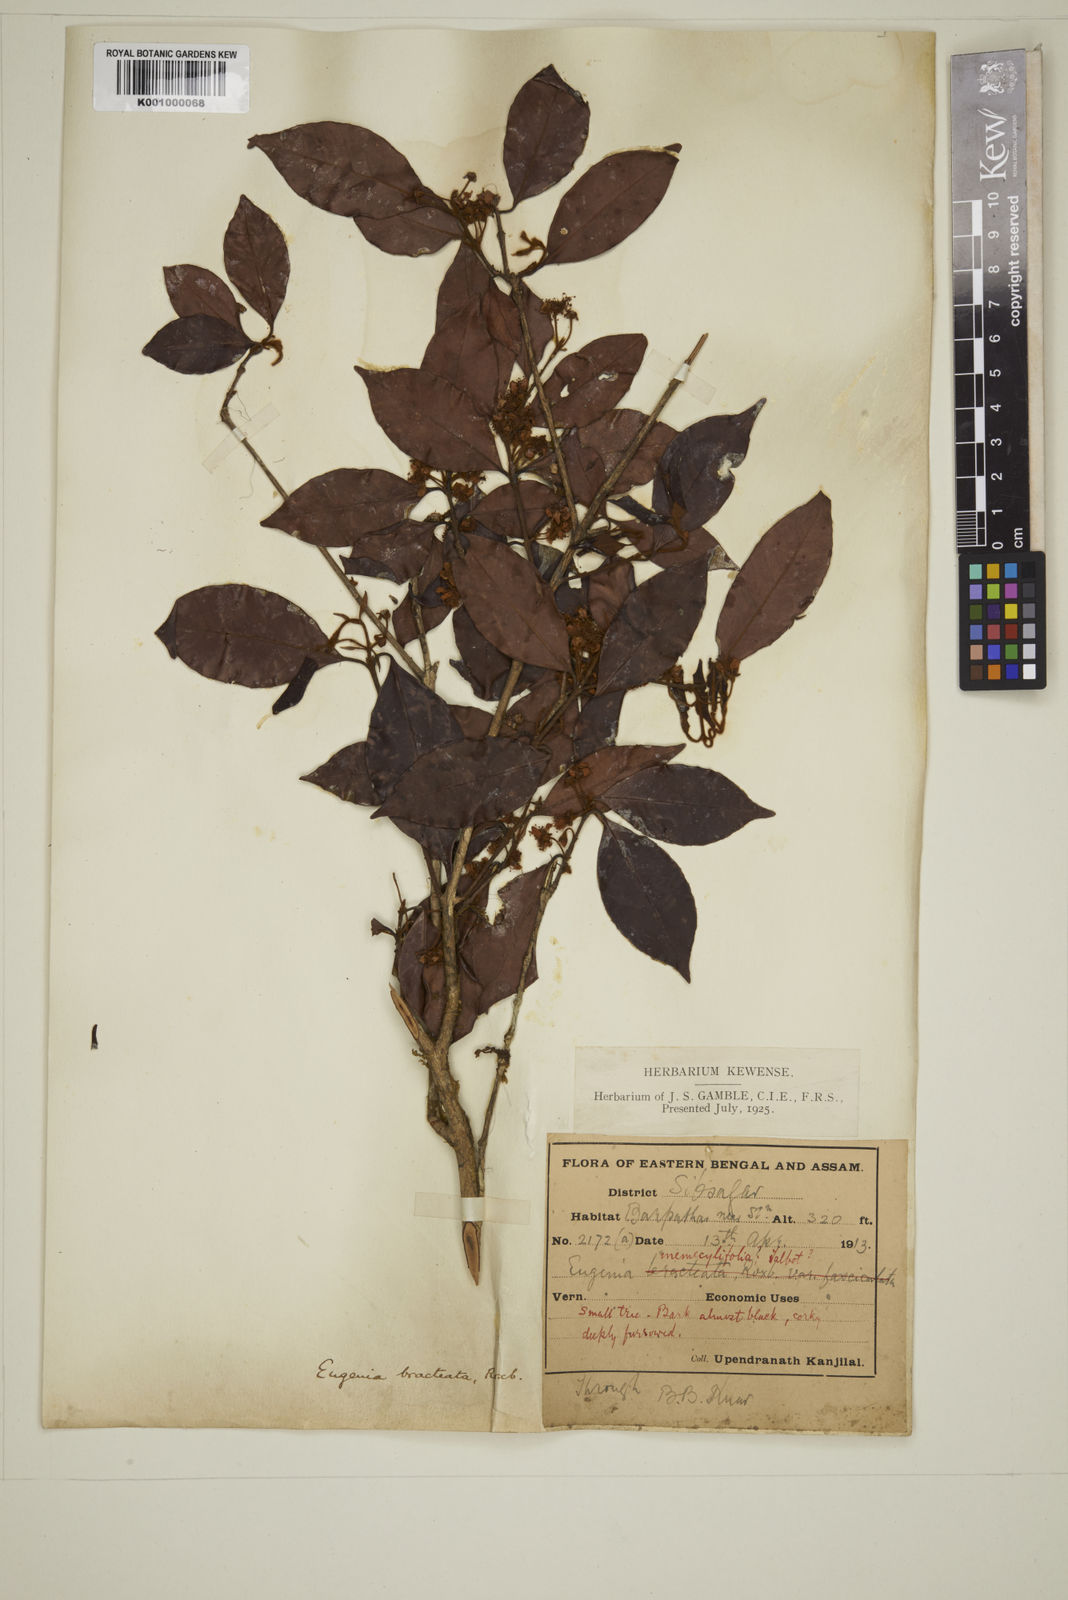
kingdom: Plantae
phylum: Tracheophyta
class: Magnoliopsida
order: Myrtales
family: Myrtaceae
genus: Myrcia
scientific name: Myrcia bracteata
